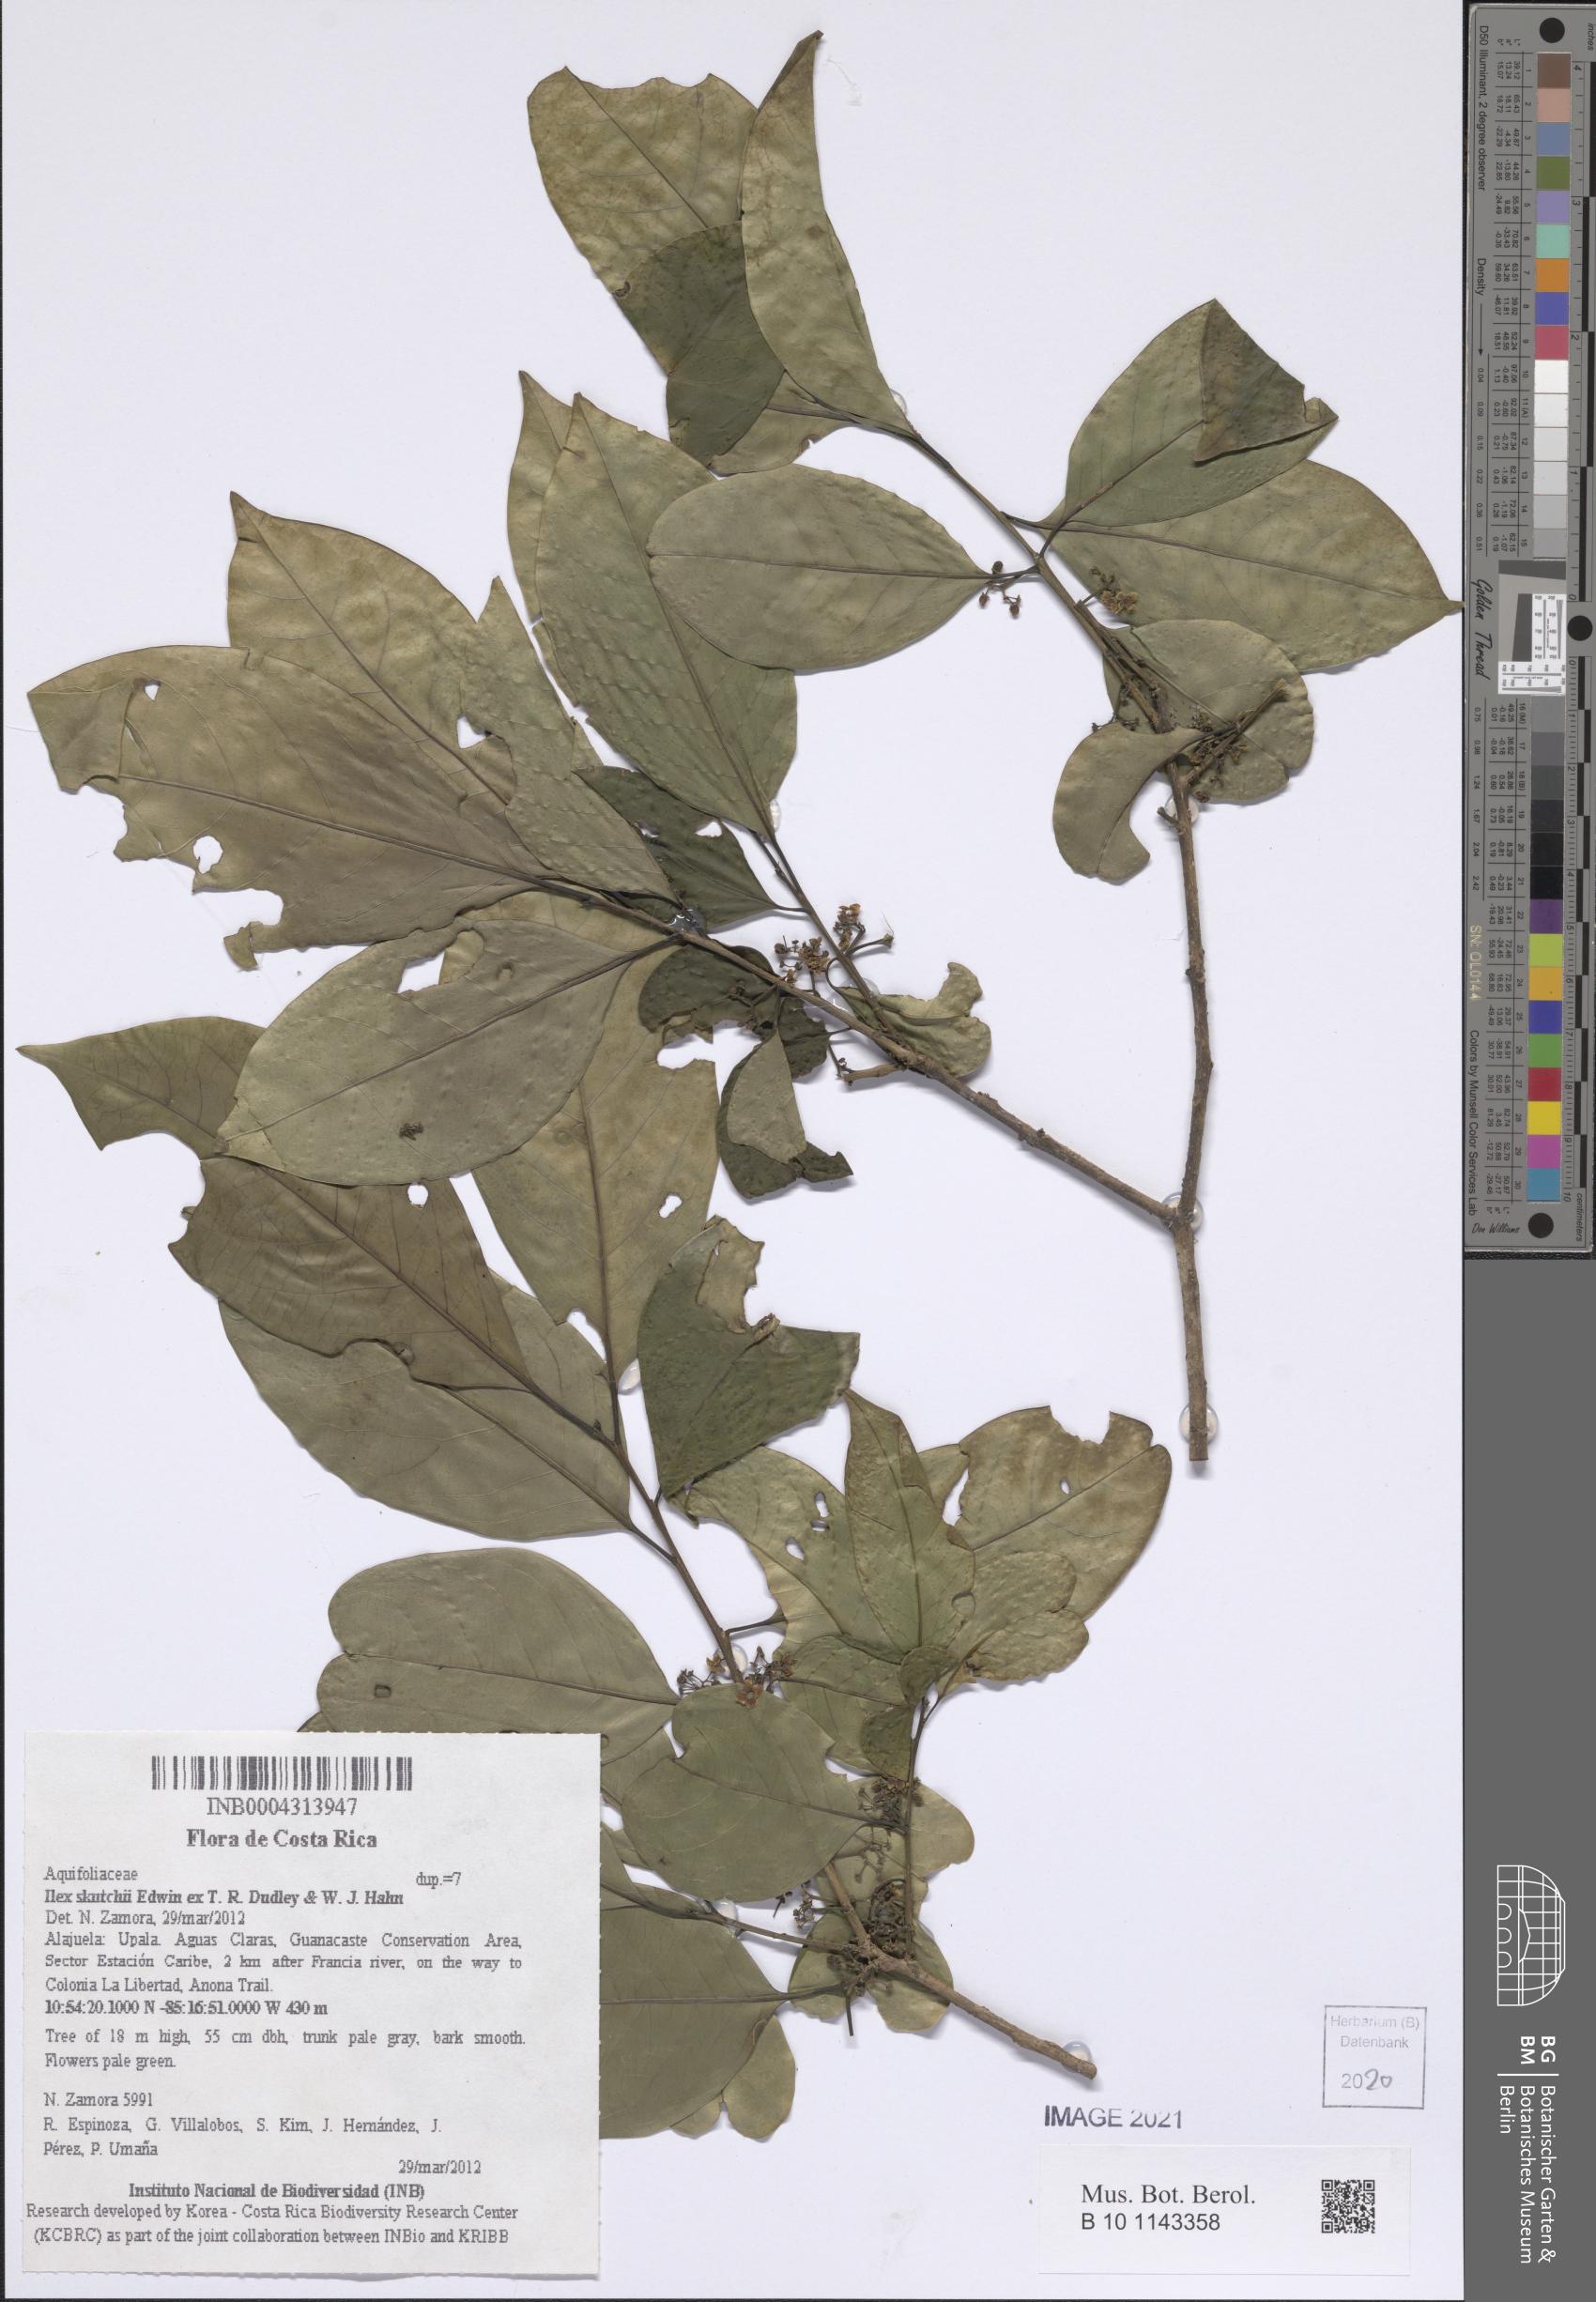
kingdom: Plantae
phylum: Tracheophyta
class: Magnoliopsida
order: Aquifoliales
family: Aquifoliaceae
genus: Ilex
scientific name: Ilex skutchii
